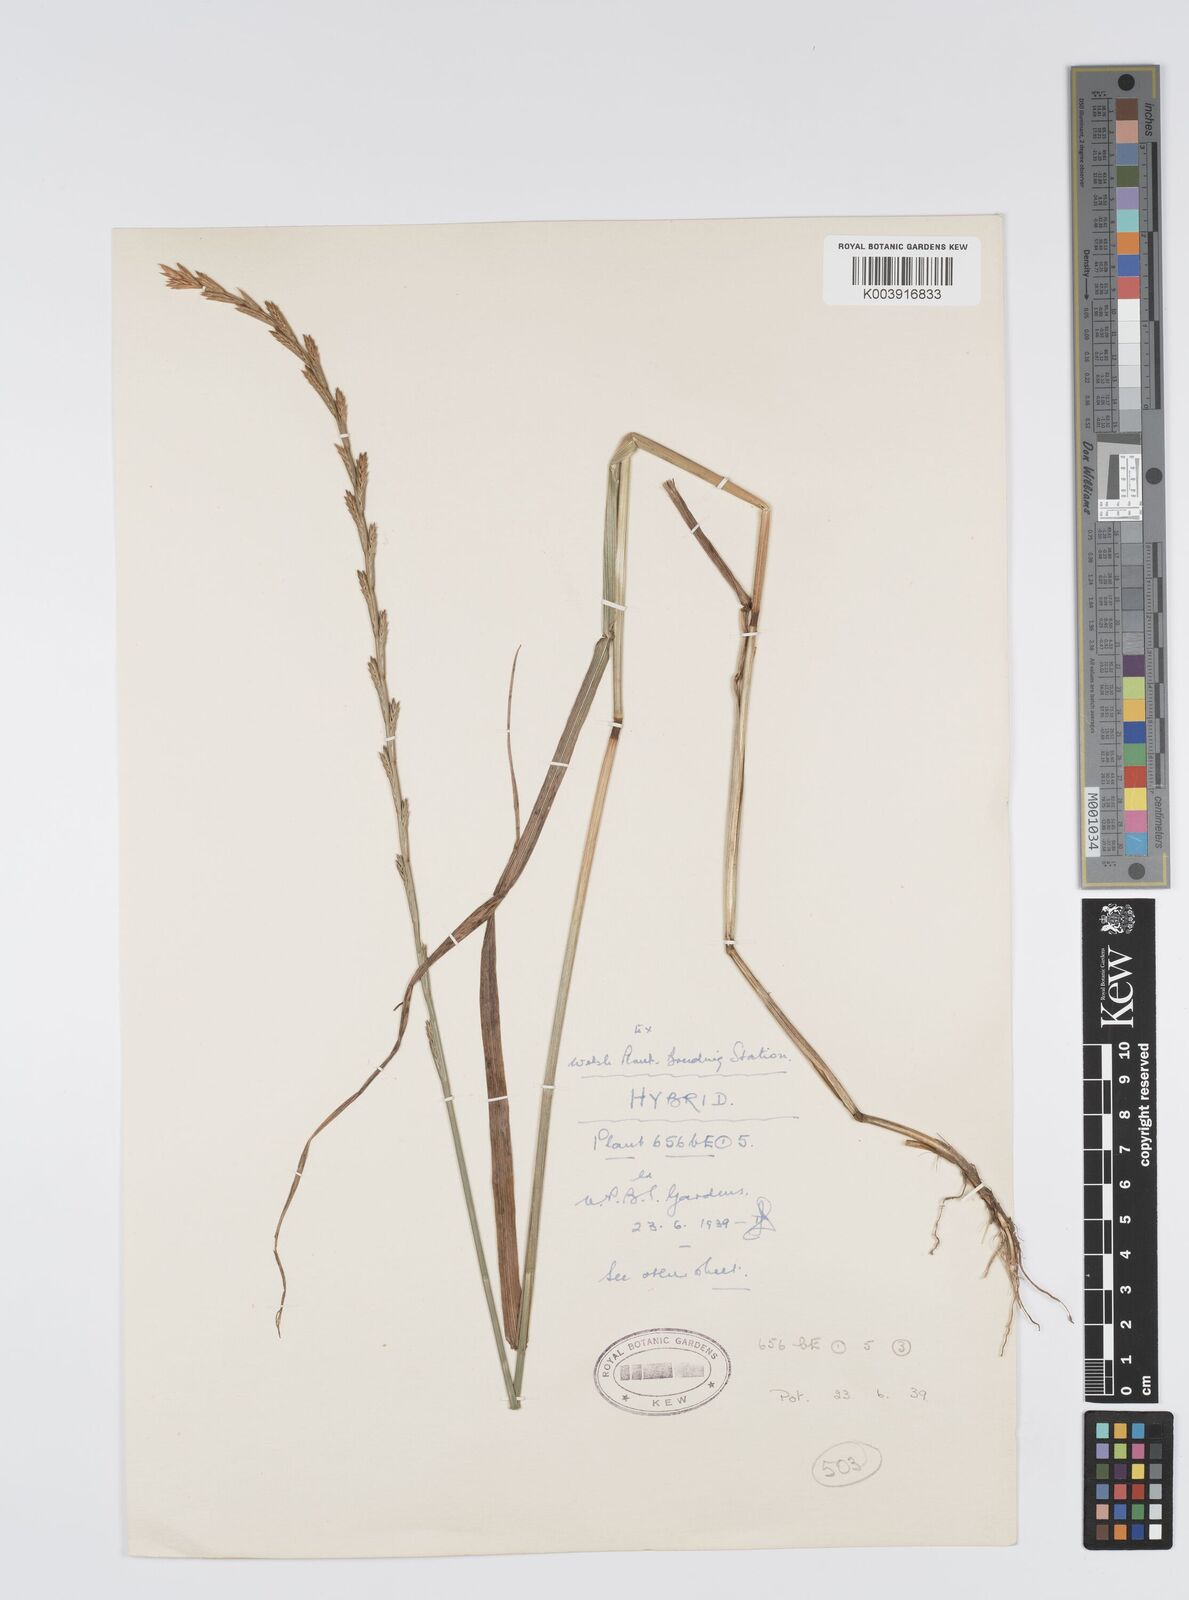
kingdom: Plantae
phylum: Tracheophyta
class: Liliopsida
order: Poales
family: Poaceae
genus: Lolium
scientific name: Lolium perenne
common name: Perennial ryegrass
